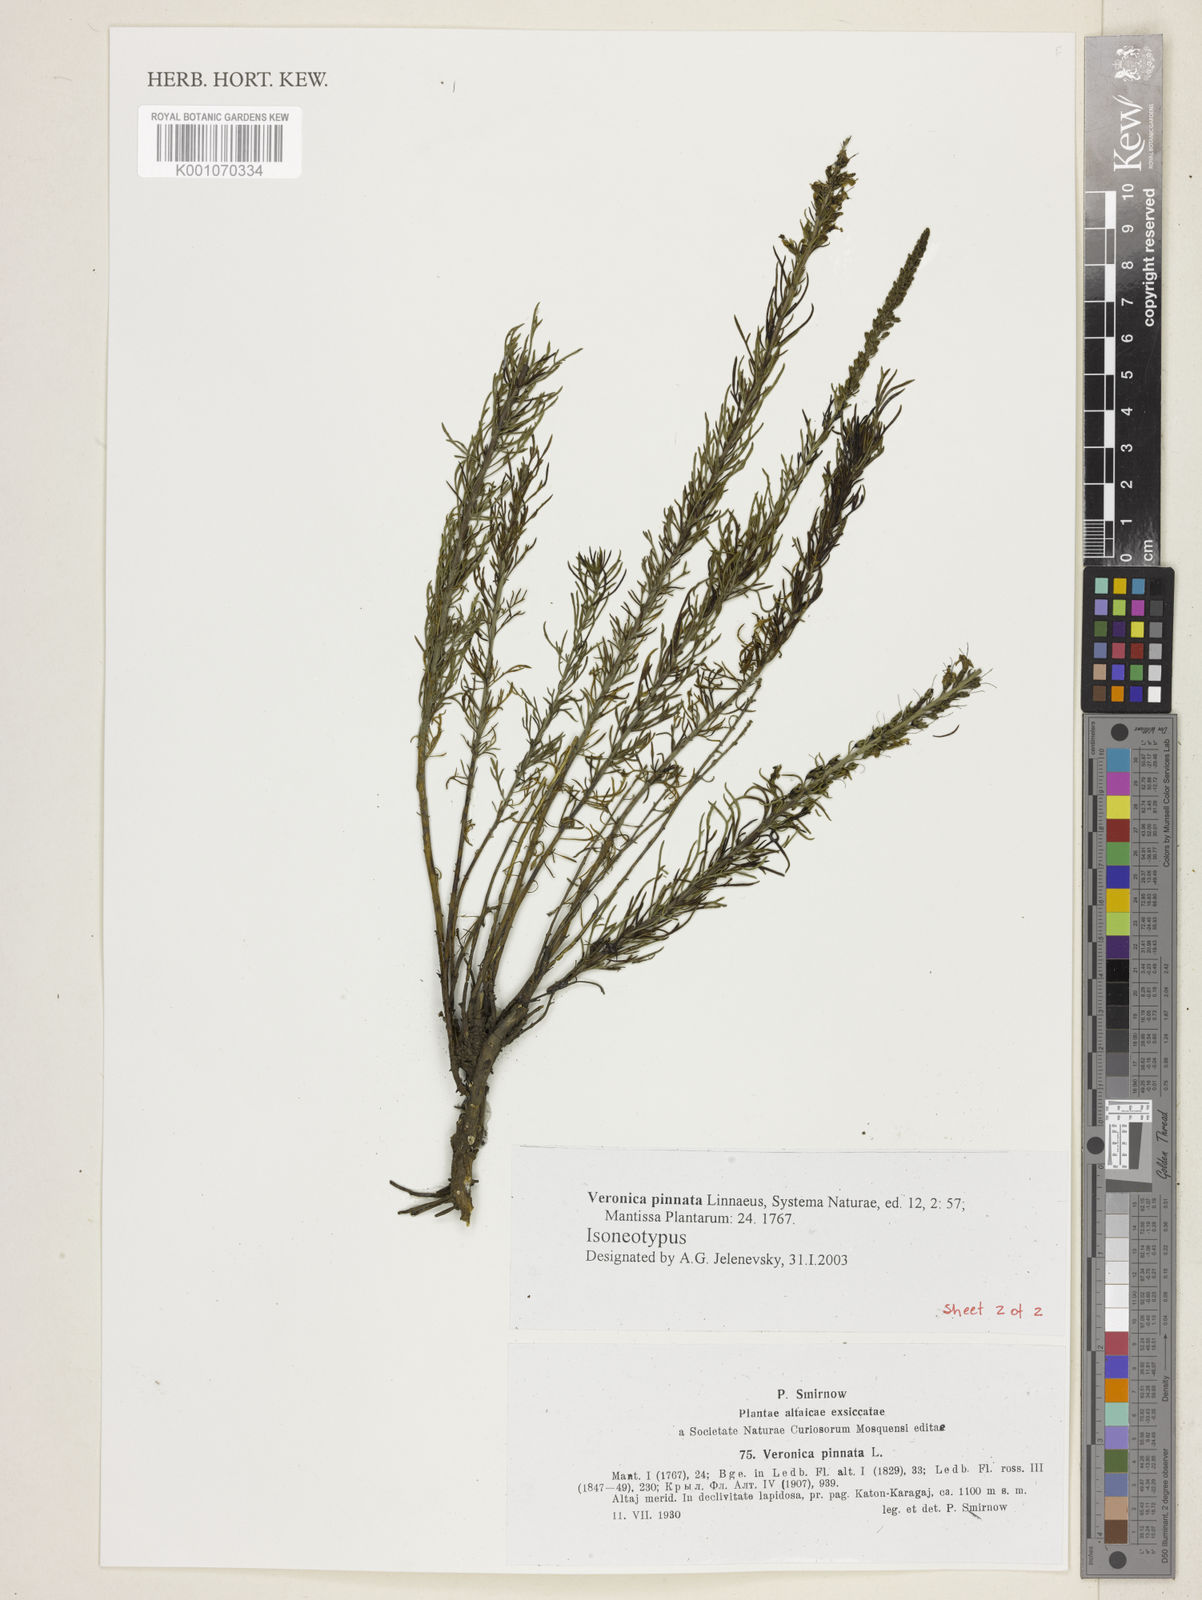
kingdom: Plantae
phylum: Tracheophyta
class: Magnoliopsida
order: Lamiales
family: Plantaginaceae
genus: Veronica
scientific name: Veronica pinnata
